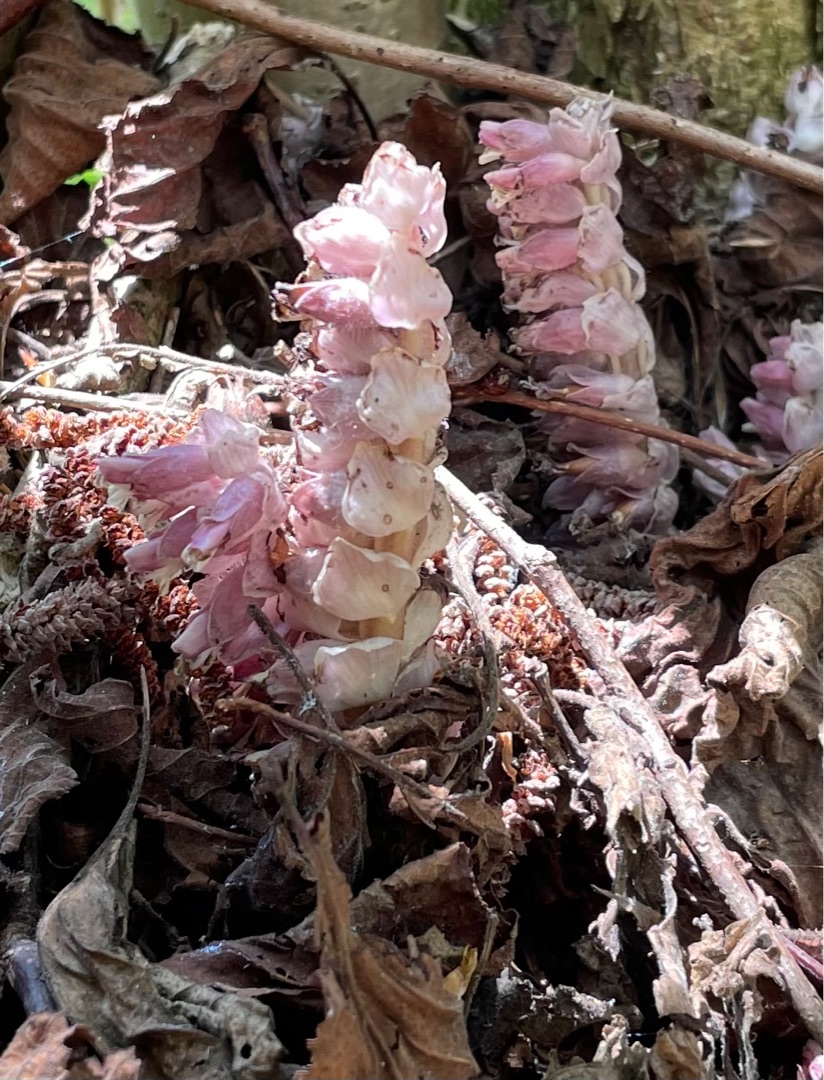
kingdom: Plantae
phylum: Tracheophyta
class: Magnoliopsida
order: Lamiales
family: Orobanchaceae
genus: Lathraea
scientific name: Lathraea squamaria
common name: Skælrod
